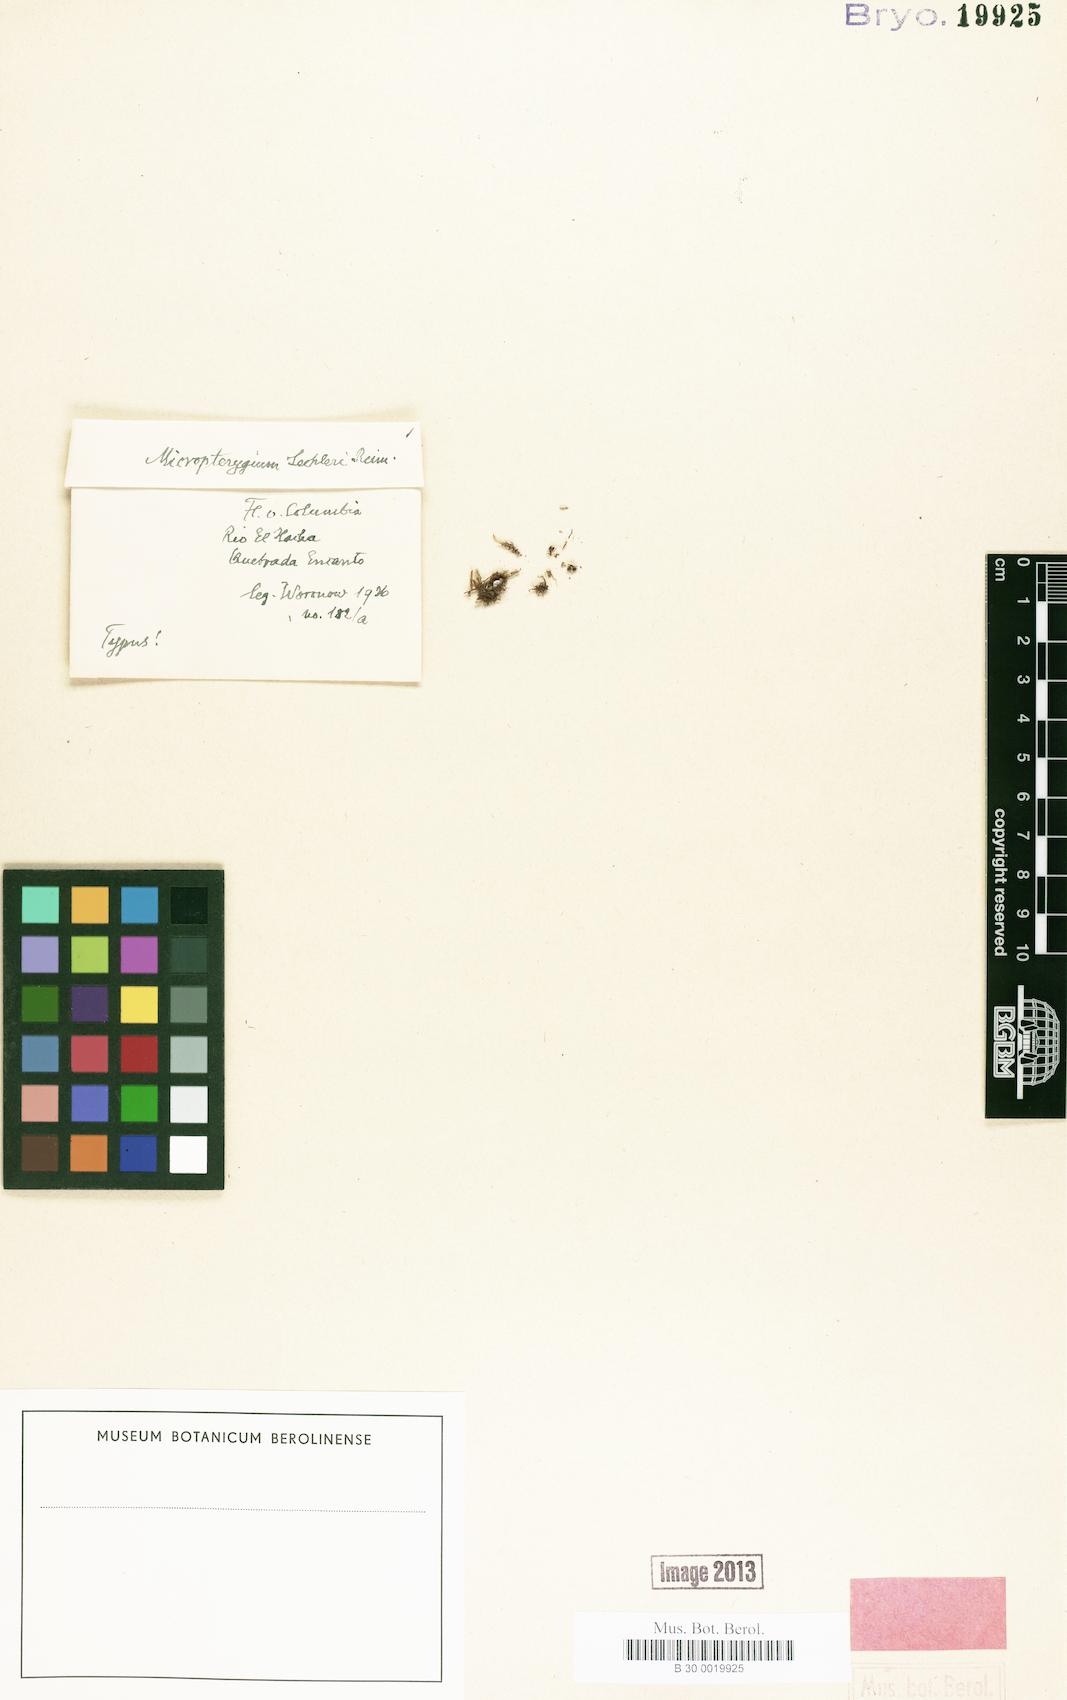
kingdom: Plantae
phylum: Marchantiophyta
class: Jungermanniopsida
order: Jungermanniales
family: Lepidoziaceae
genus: Micropterygium
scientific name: Micropterygium lechleri
